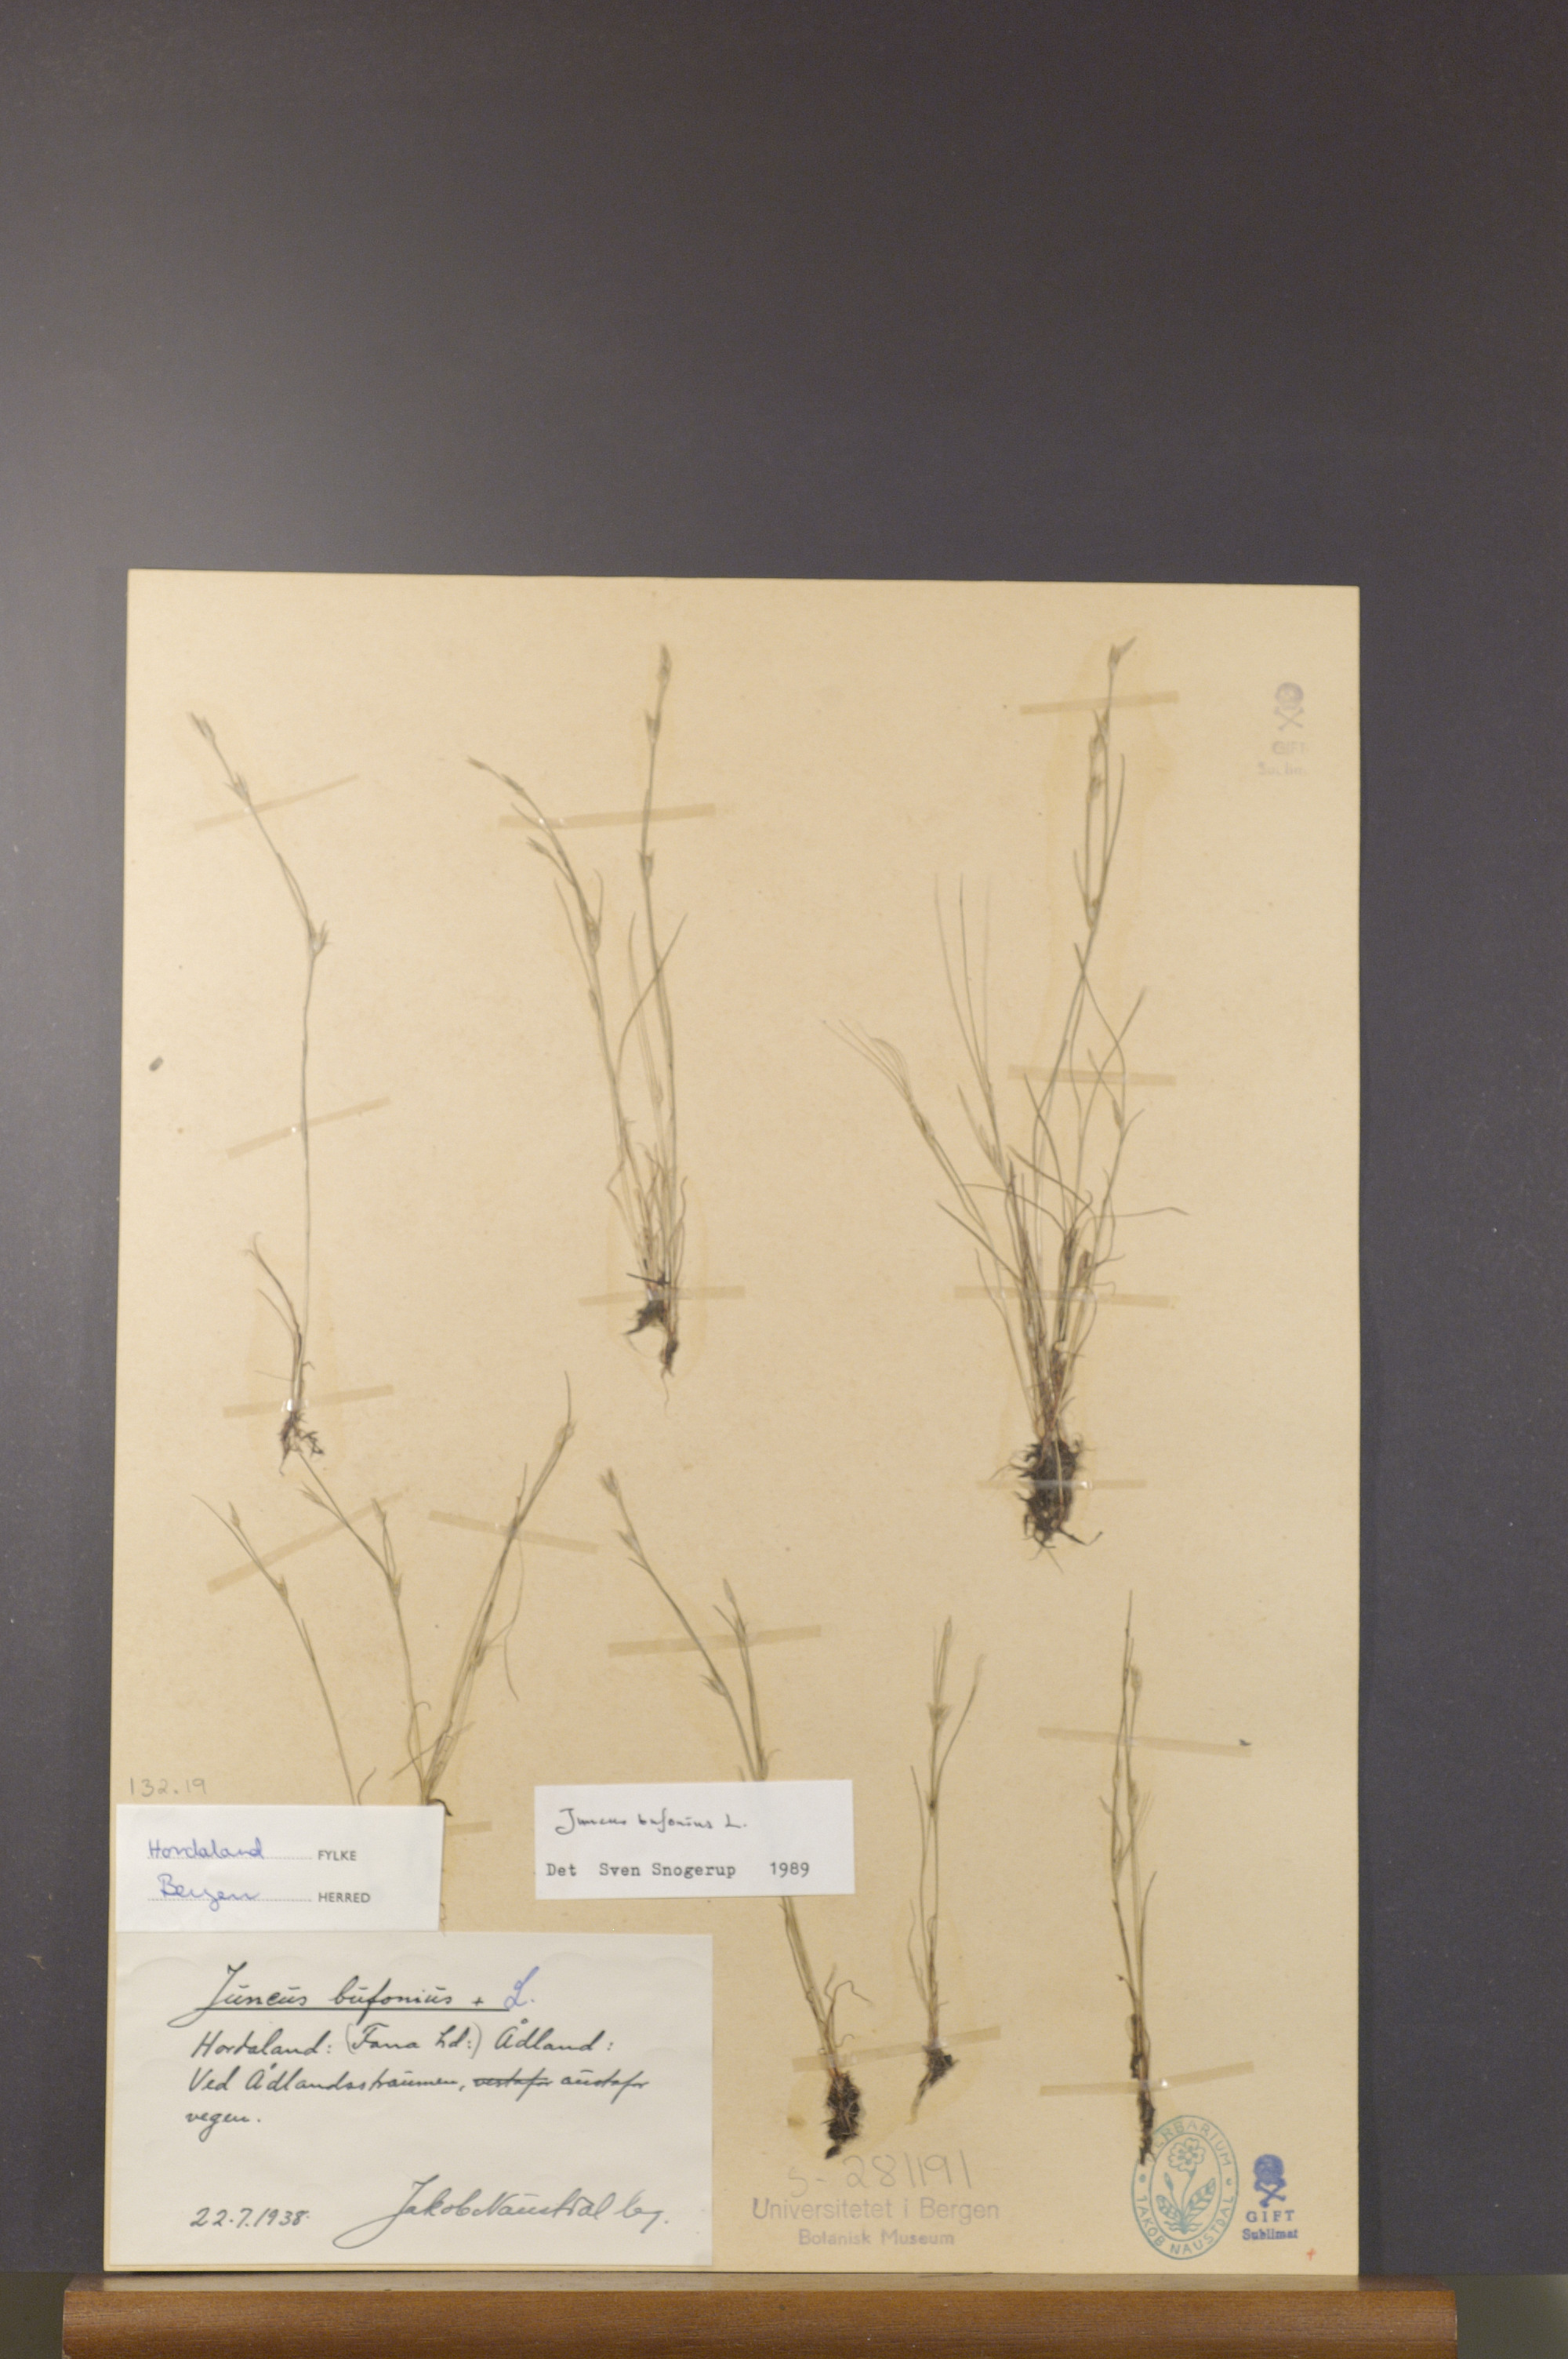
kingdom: Plantae
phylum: Tracheophyta
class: Liliopsida
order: Poales
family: Juncaceae
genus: Juncus
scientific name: Juncus bufonius
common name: Toad rush
